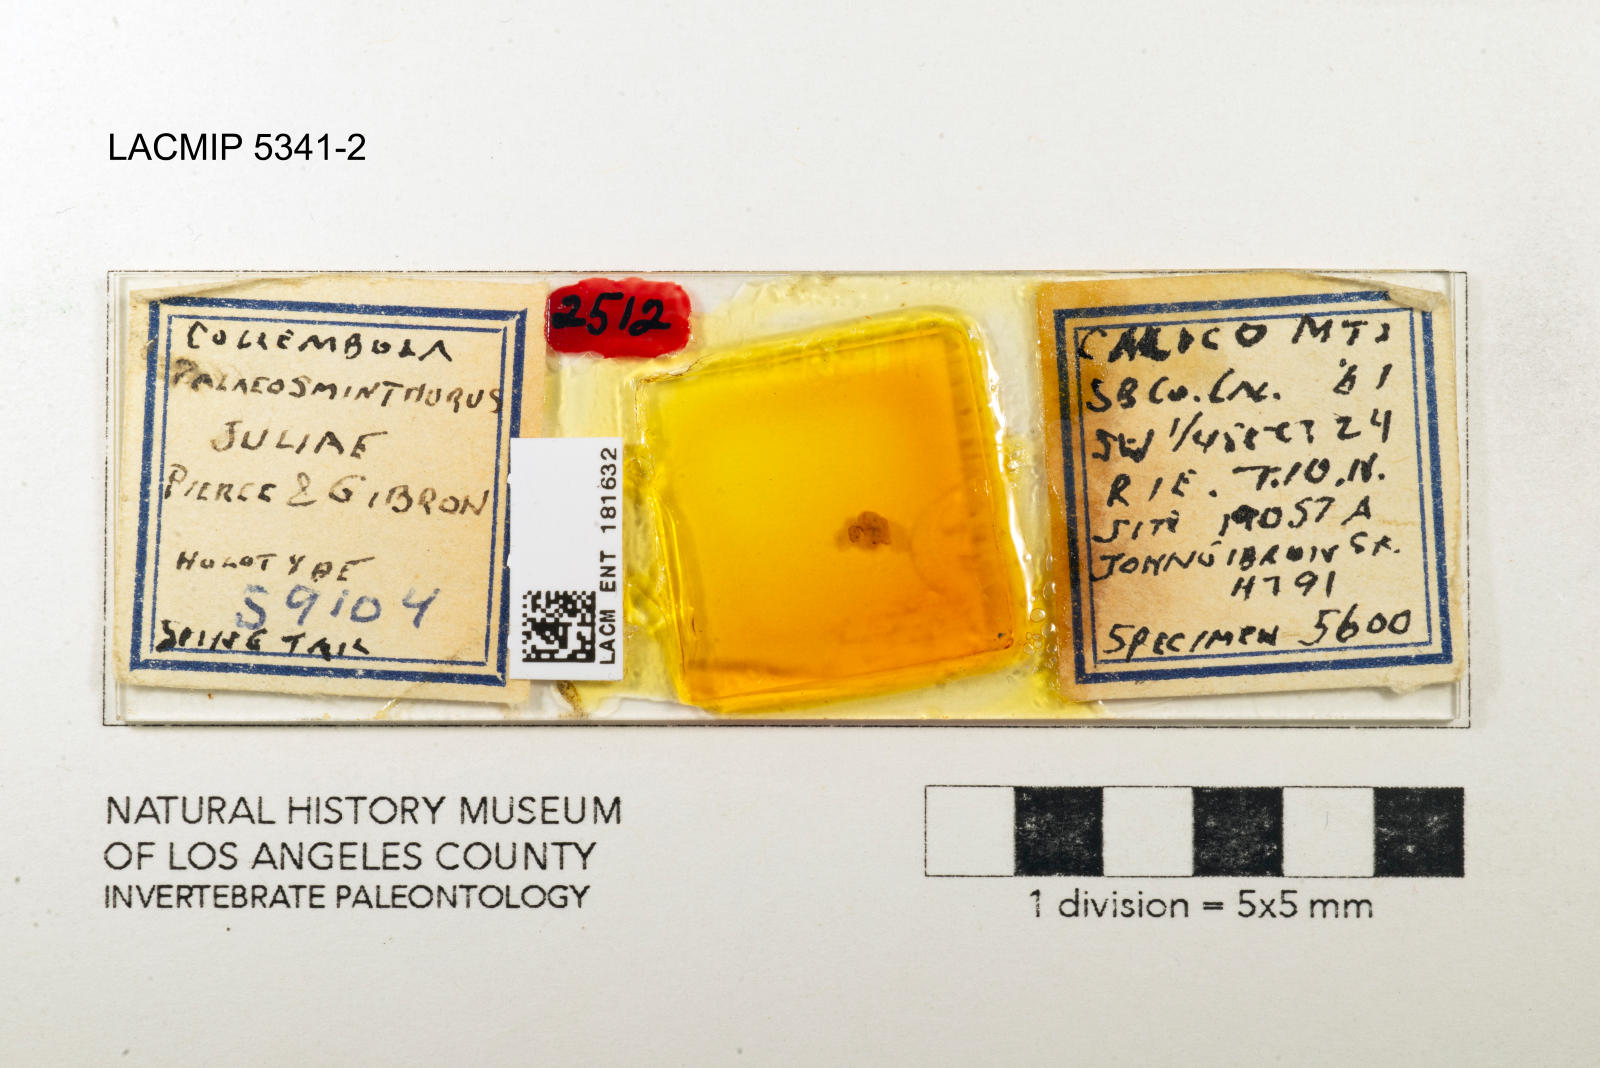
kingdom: Animalia
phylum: Arthropoda
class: Insecta
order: Hymenoptera
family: Formicidae
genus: Camponotus
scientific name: Camponotus juliae
